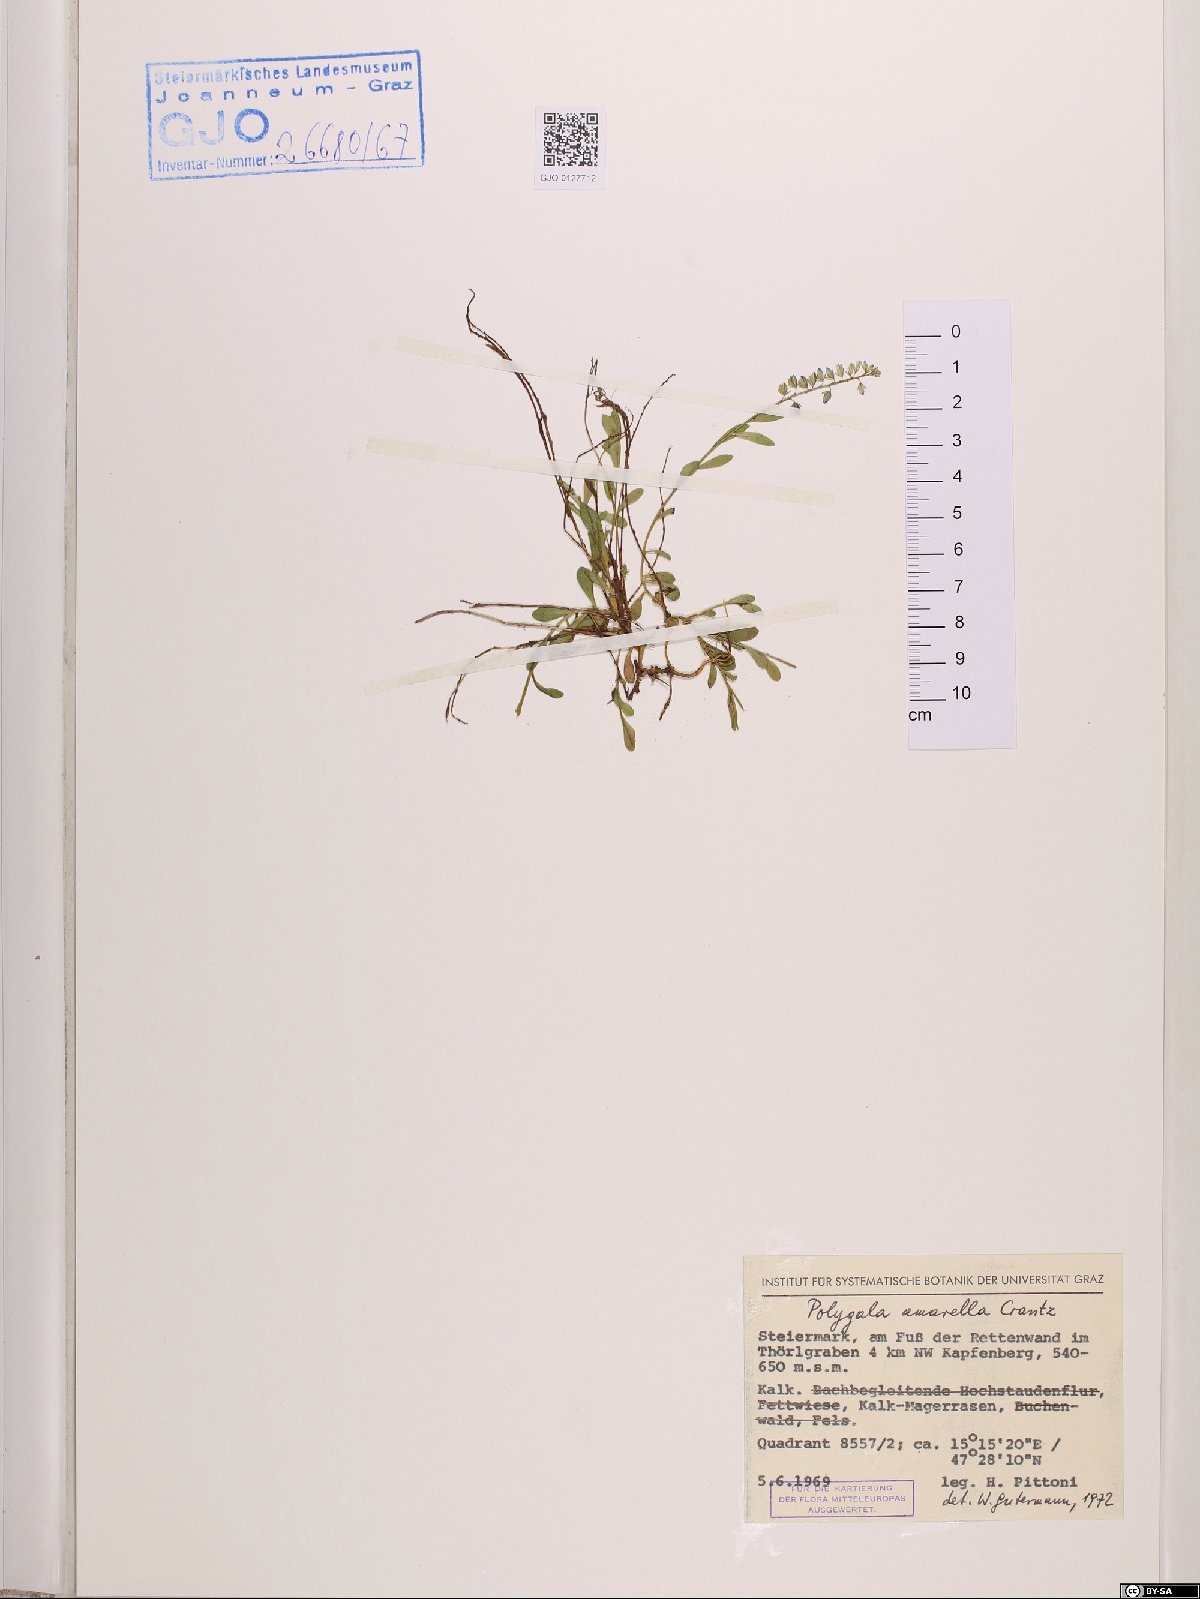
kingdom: Plantae
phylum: Tracheophyta
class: Magnoliopsida
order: Fabales
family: Polygalaceae
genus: Polygala
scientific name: Polygala amarella
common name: Dwarf milkwort
